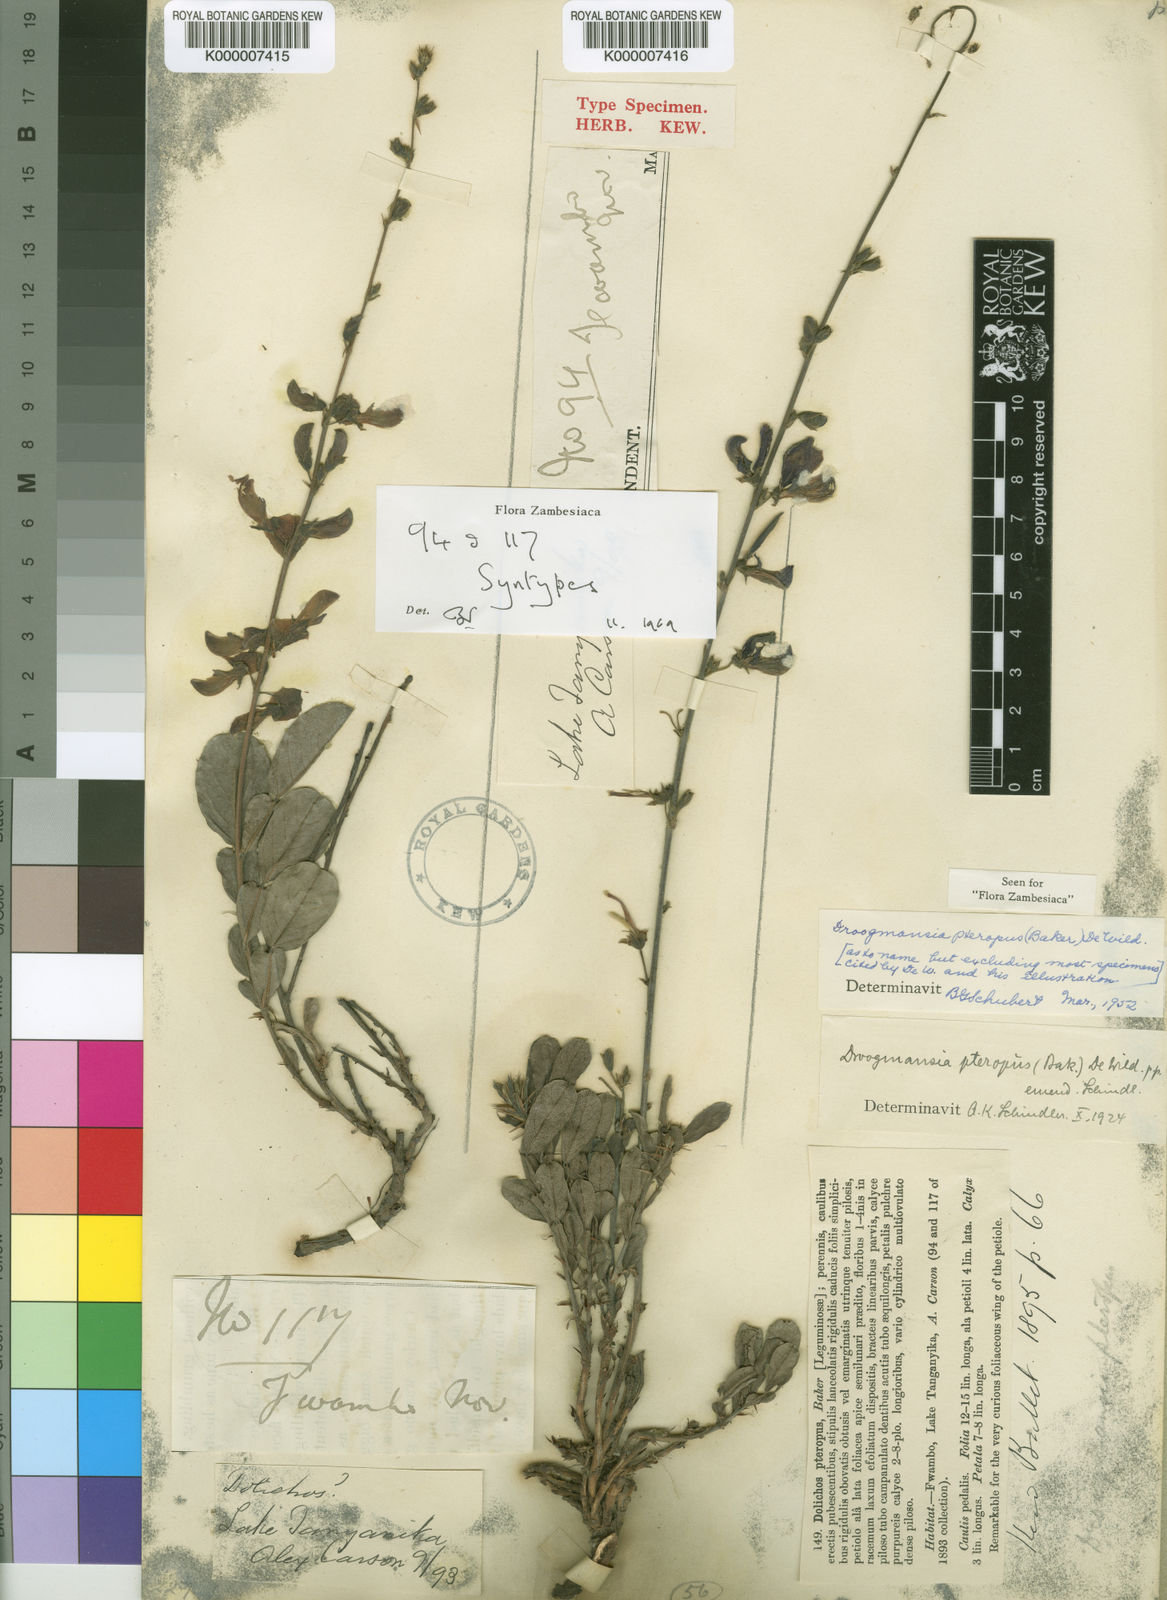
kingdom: Plantae
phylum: Tracheophyta
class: Magnoliopsida
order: Fabales
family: Fabaceae
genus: Droogmansia
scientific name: Droogmansia pteropus
